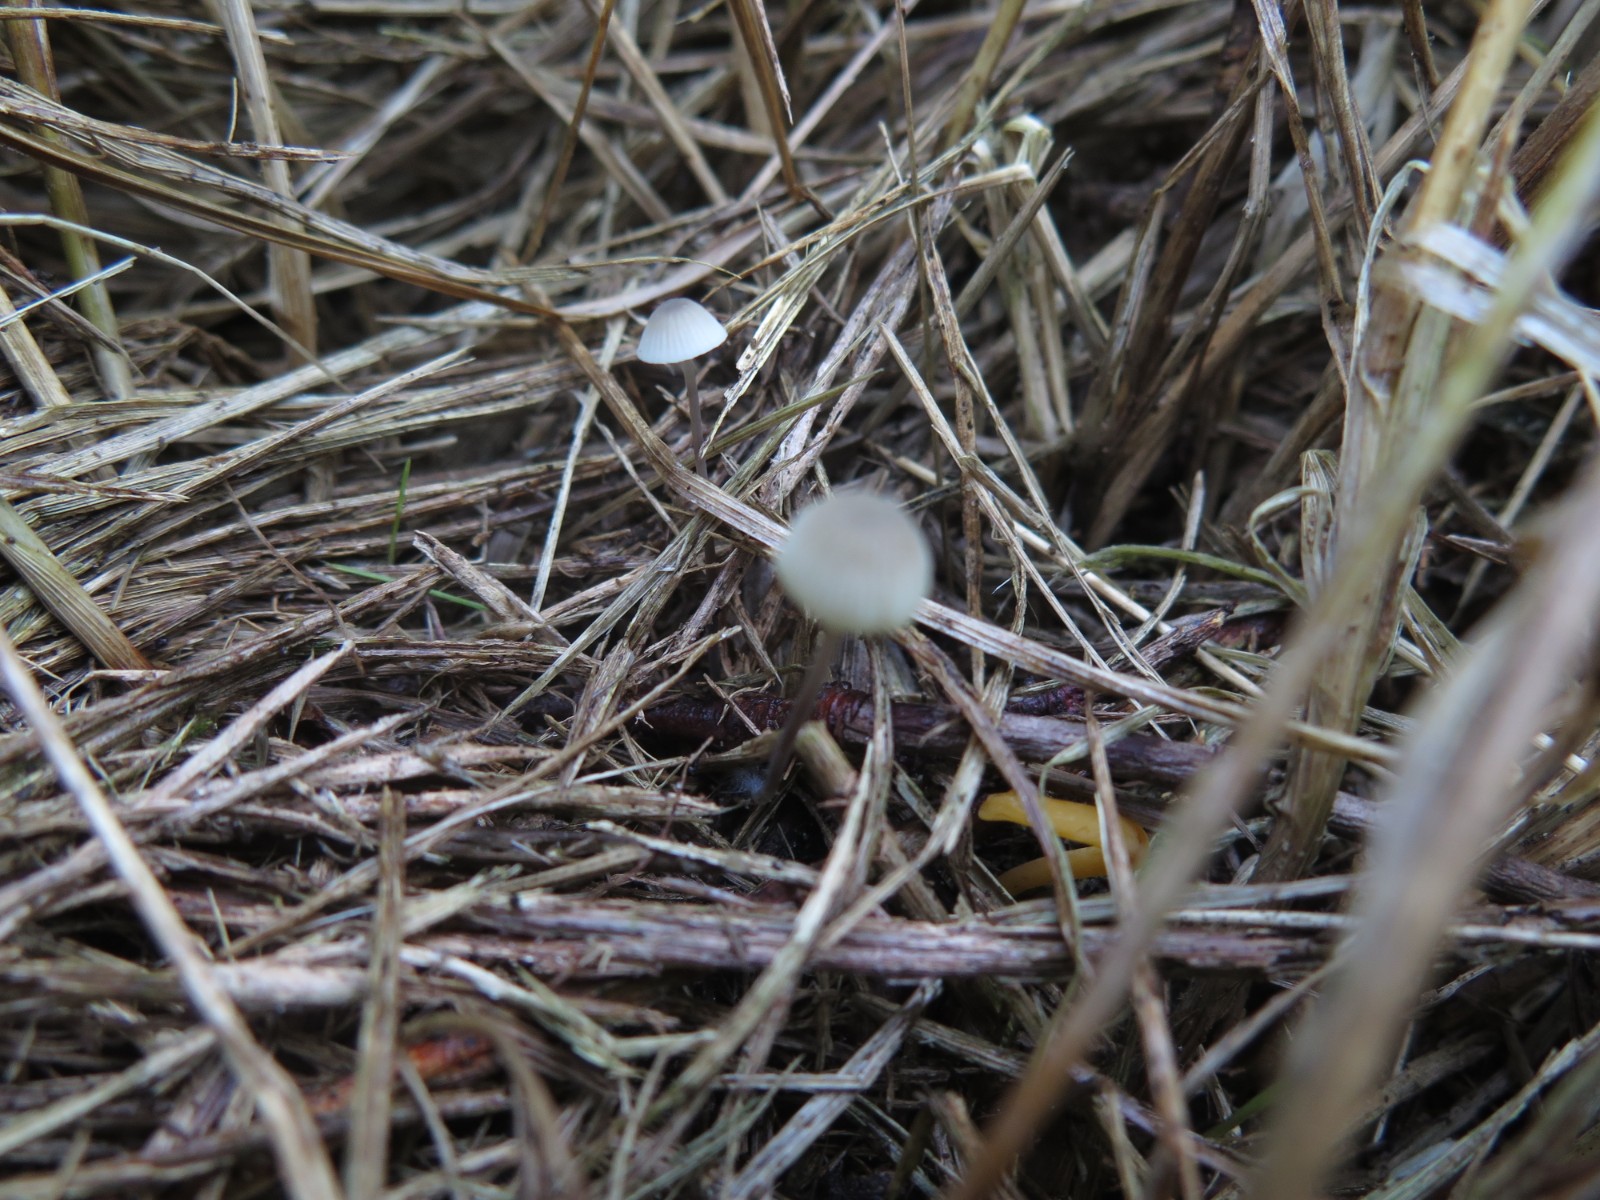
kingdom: Fungi
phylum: Basidiomycota
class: Agaricomycetes
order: Agaricales
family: Mycenaceae
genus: Mycena
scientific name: Mycena filopes
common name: jod-huesvamp
